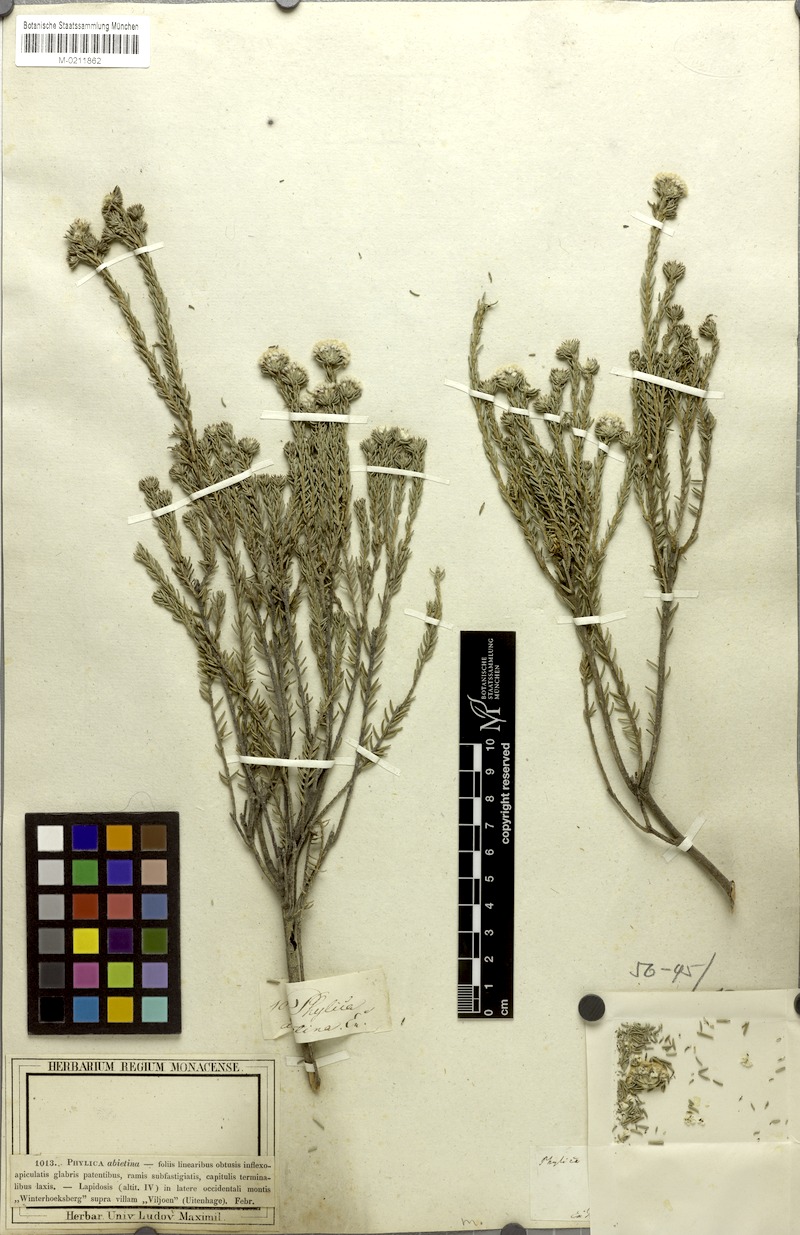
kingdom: Plantae
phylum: Tracheophyta
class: Magnoliopsida
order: Rosales
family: Rhamnaceae
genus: Phylica
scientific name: Phylica abietina
